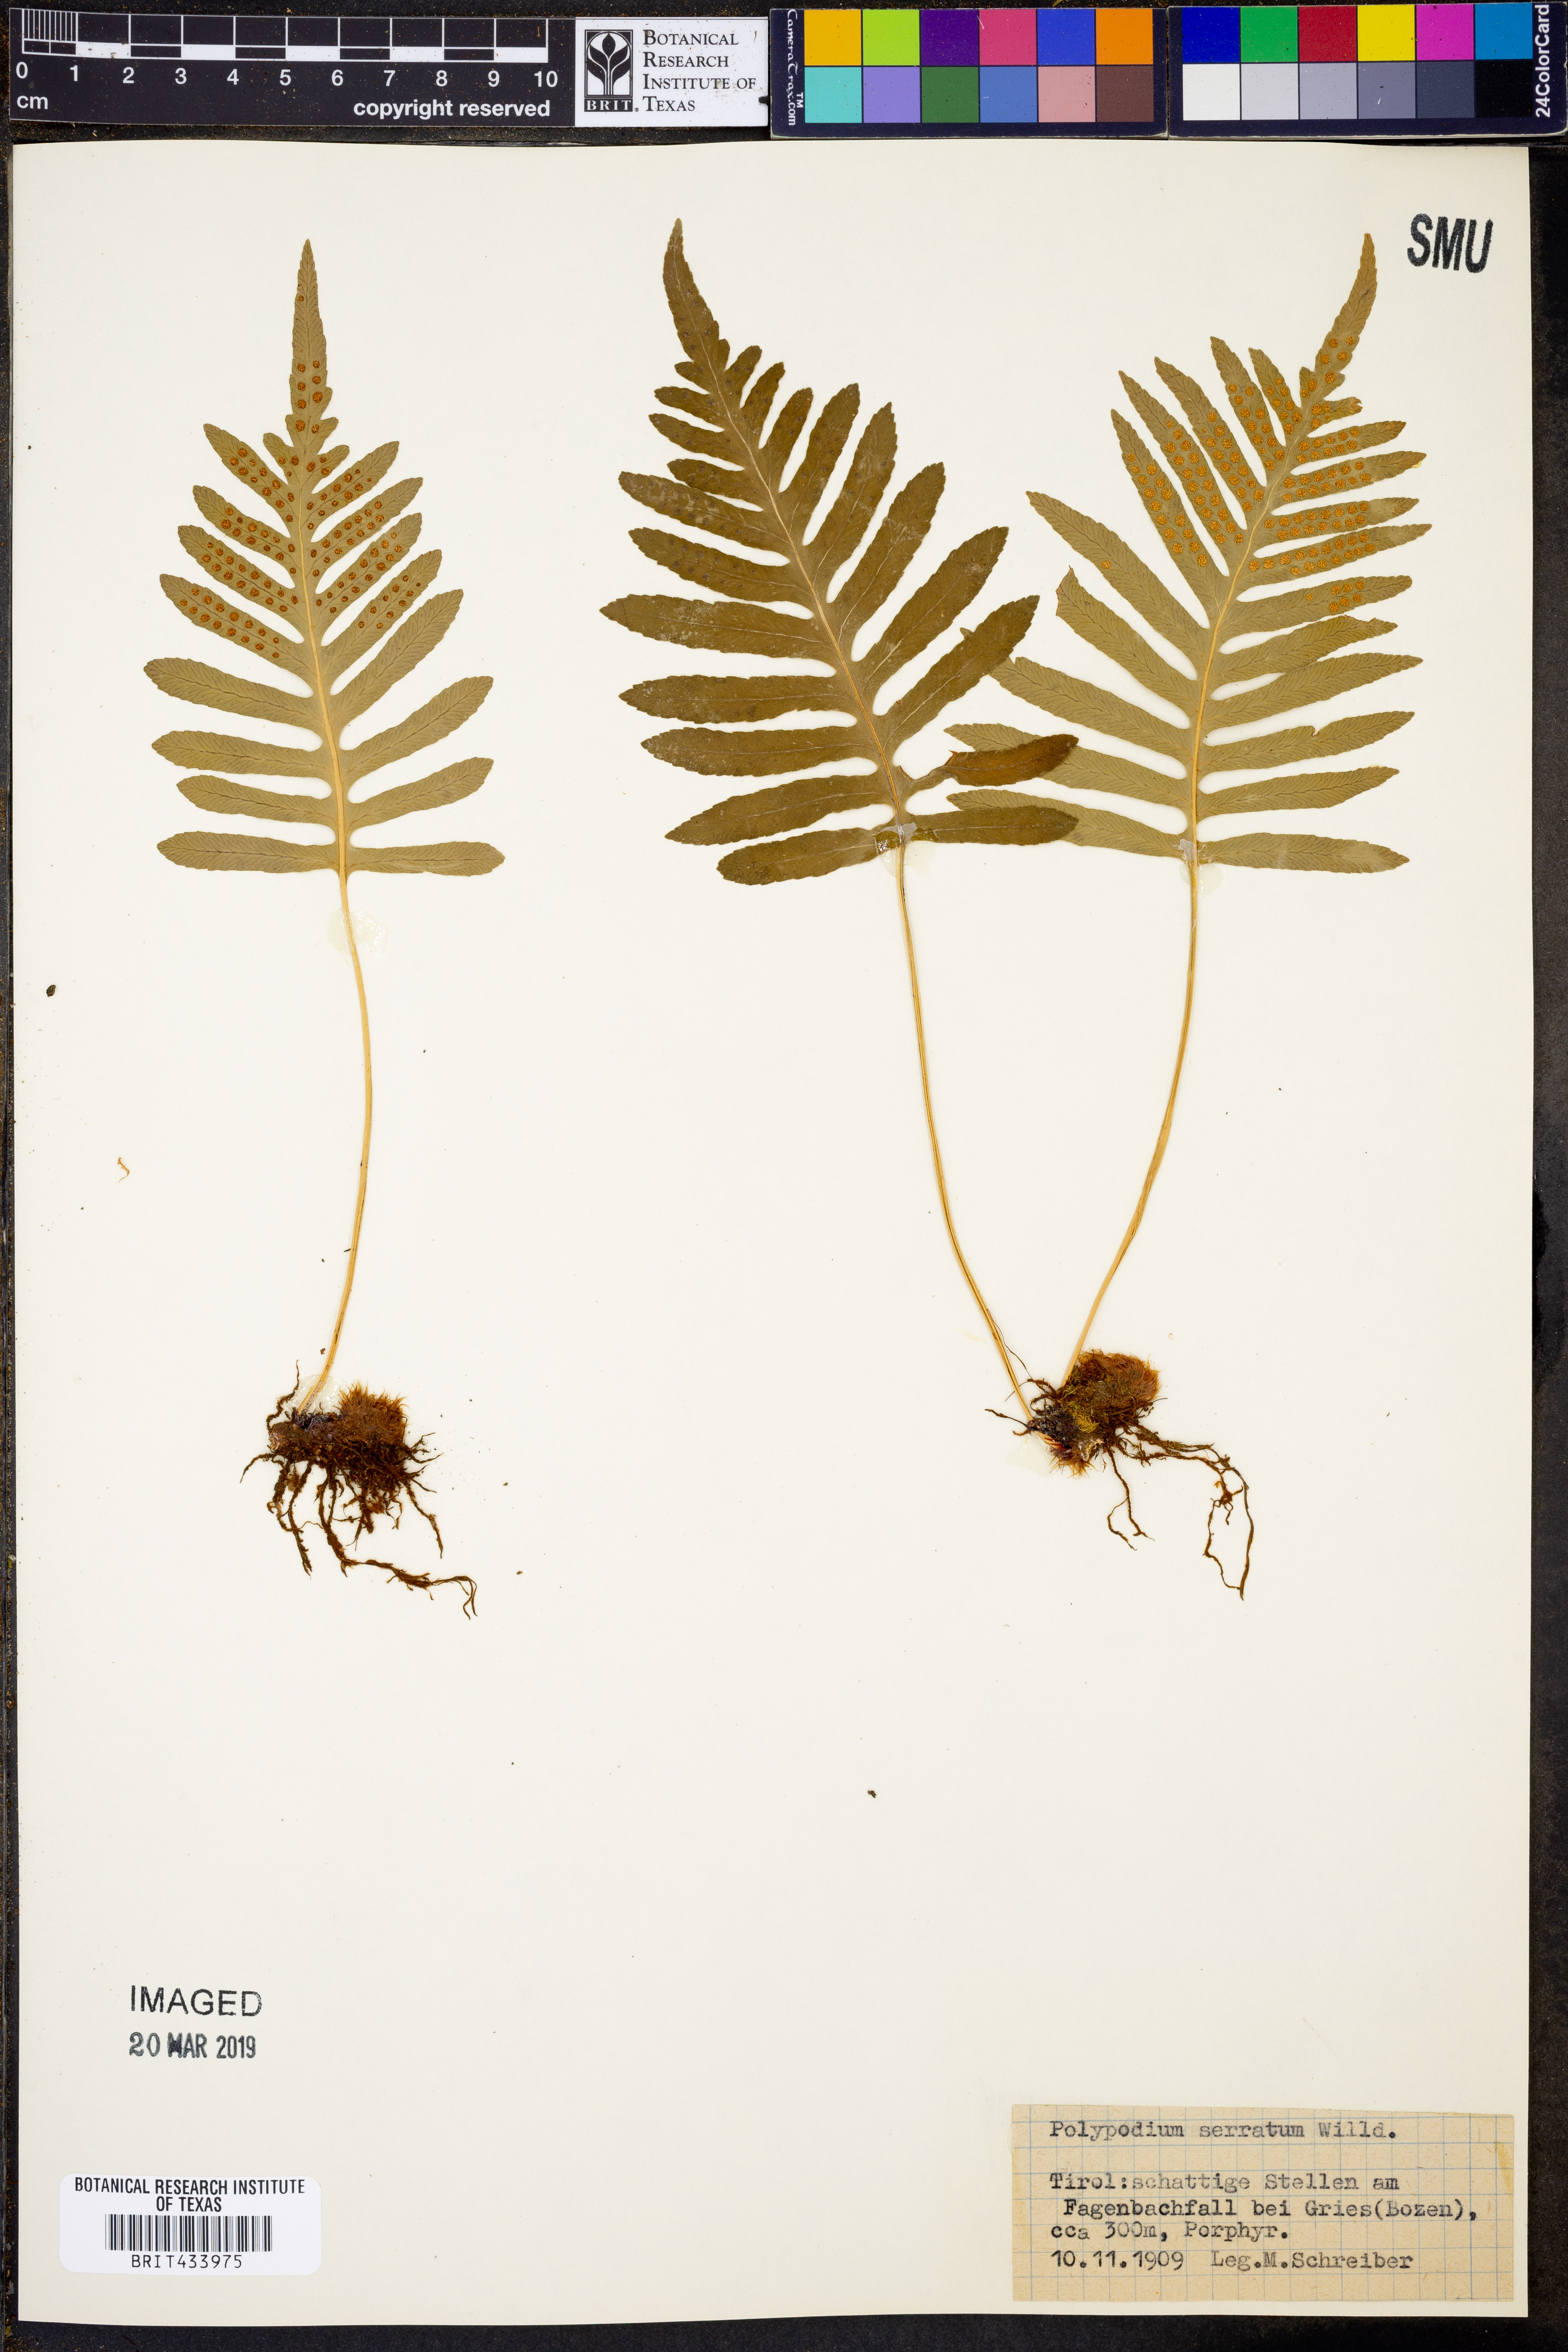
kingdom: Plantae
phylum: Tracheophyta
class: Polypodiopsida
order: Polypodiales
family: Polypodiaceae
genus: Polypodium
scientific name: Polypodium cambricum
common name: Southern polypody
